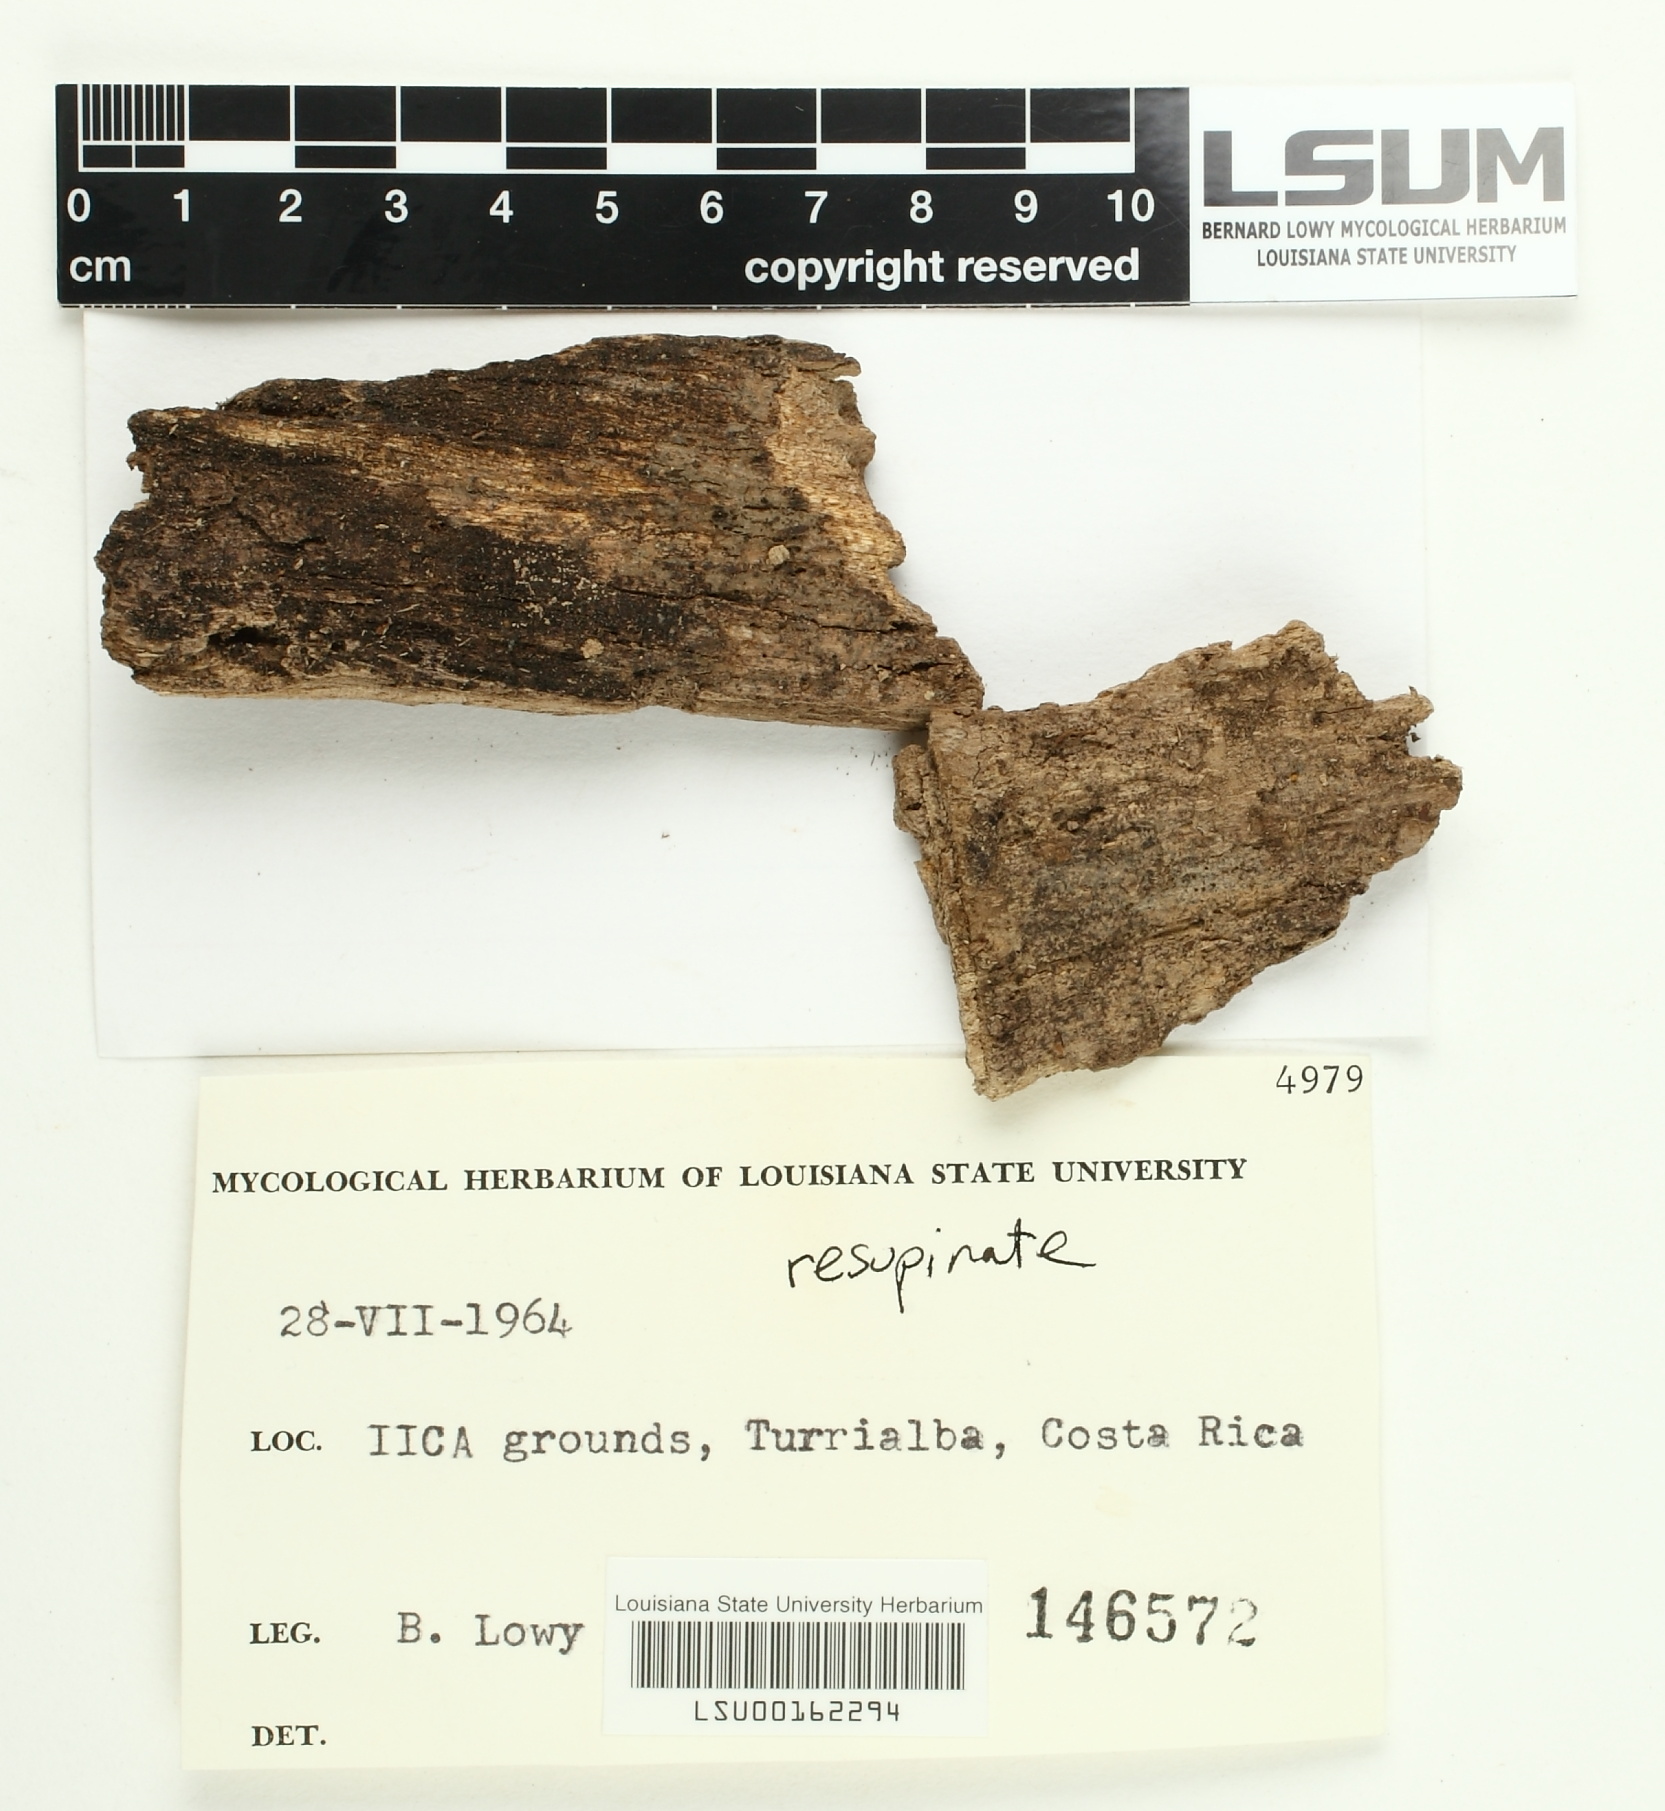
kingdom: Fungi
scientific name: Fungi
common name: Fungi
